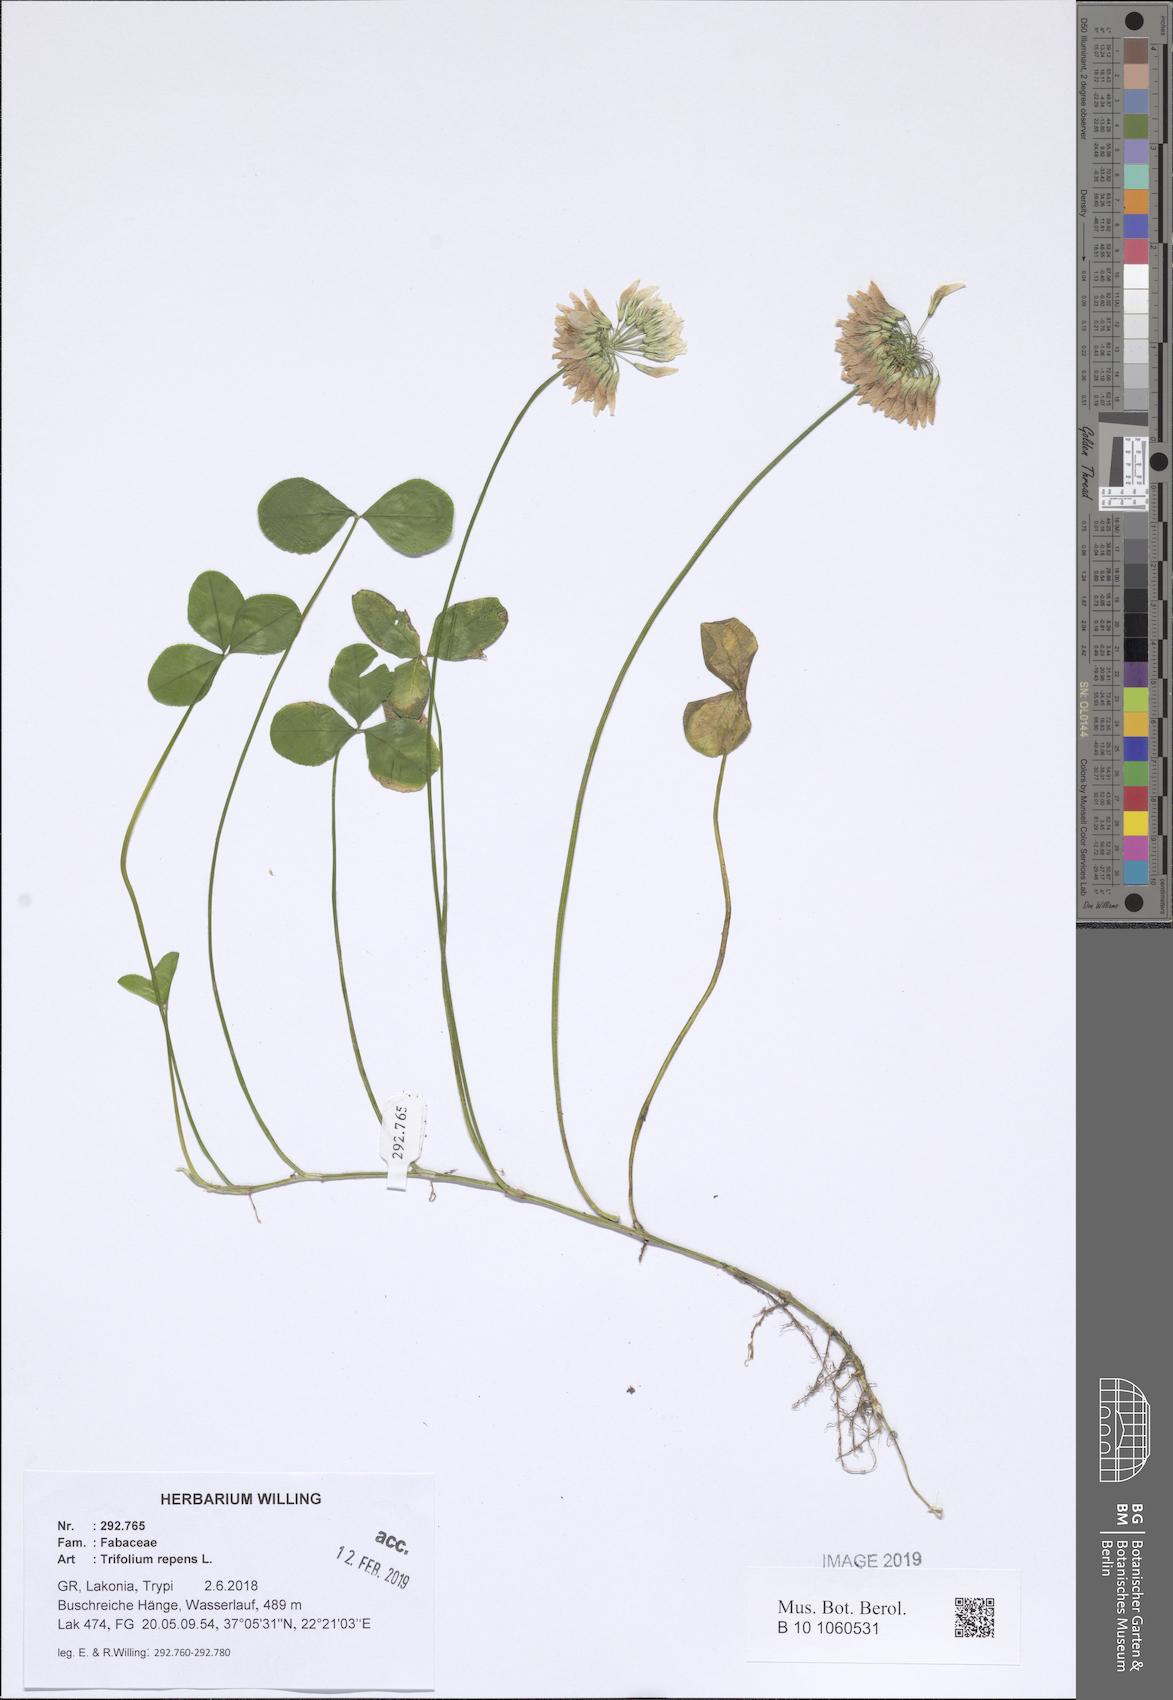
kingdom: Plantae
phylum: Tracheophyta
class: Magnoliopsida
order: Fabales
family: Fabaceae
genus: Trifolium
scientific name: Trifolium repens
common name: White clover
